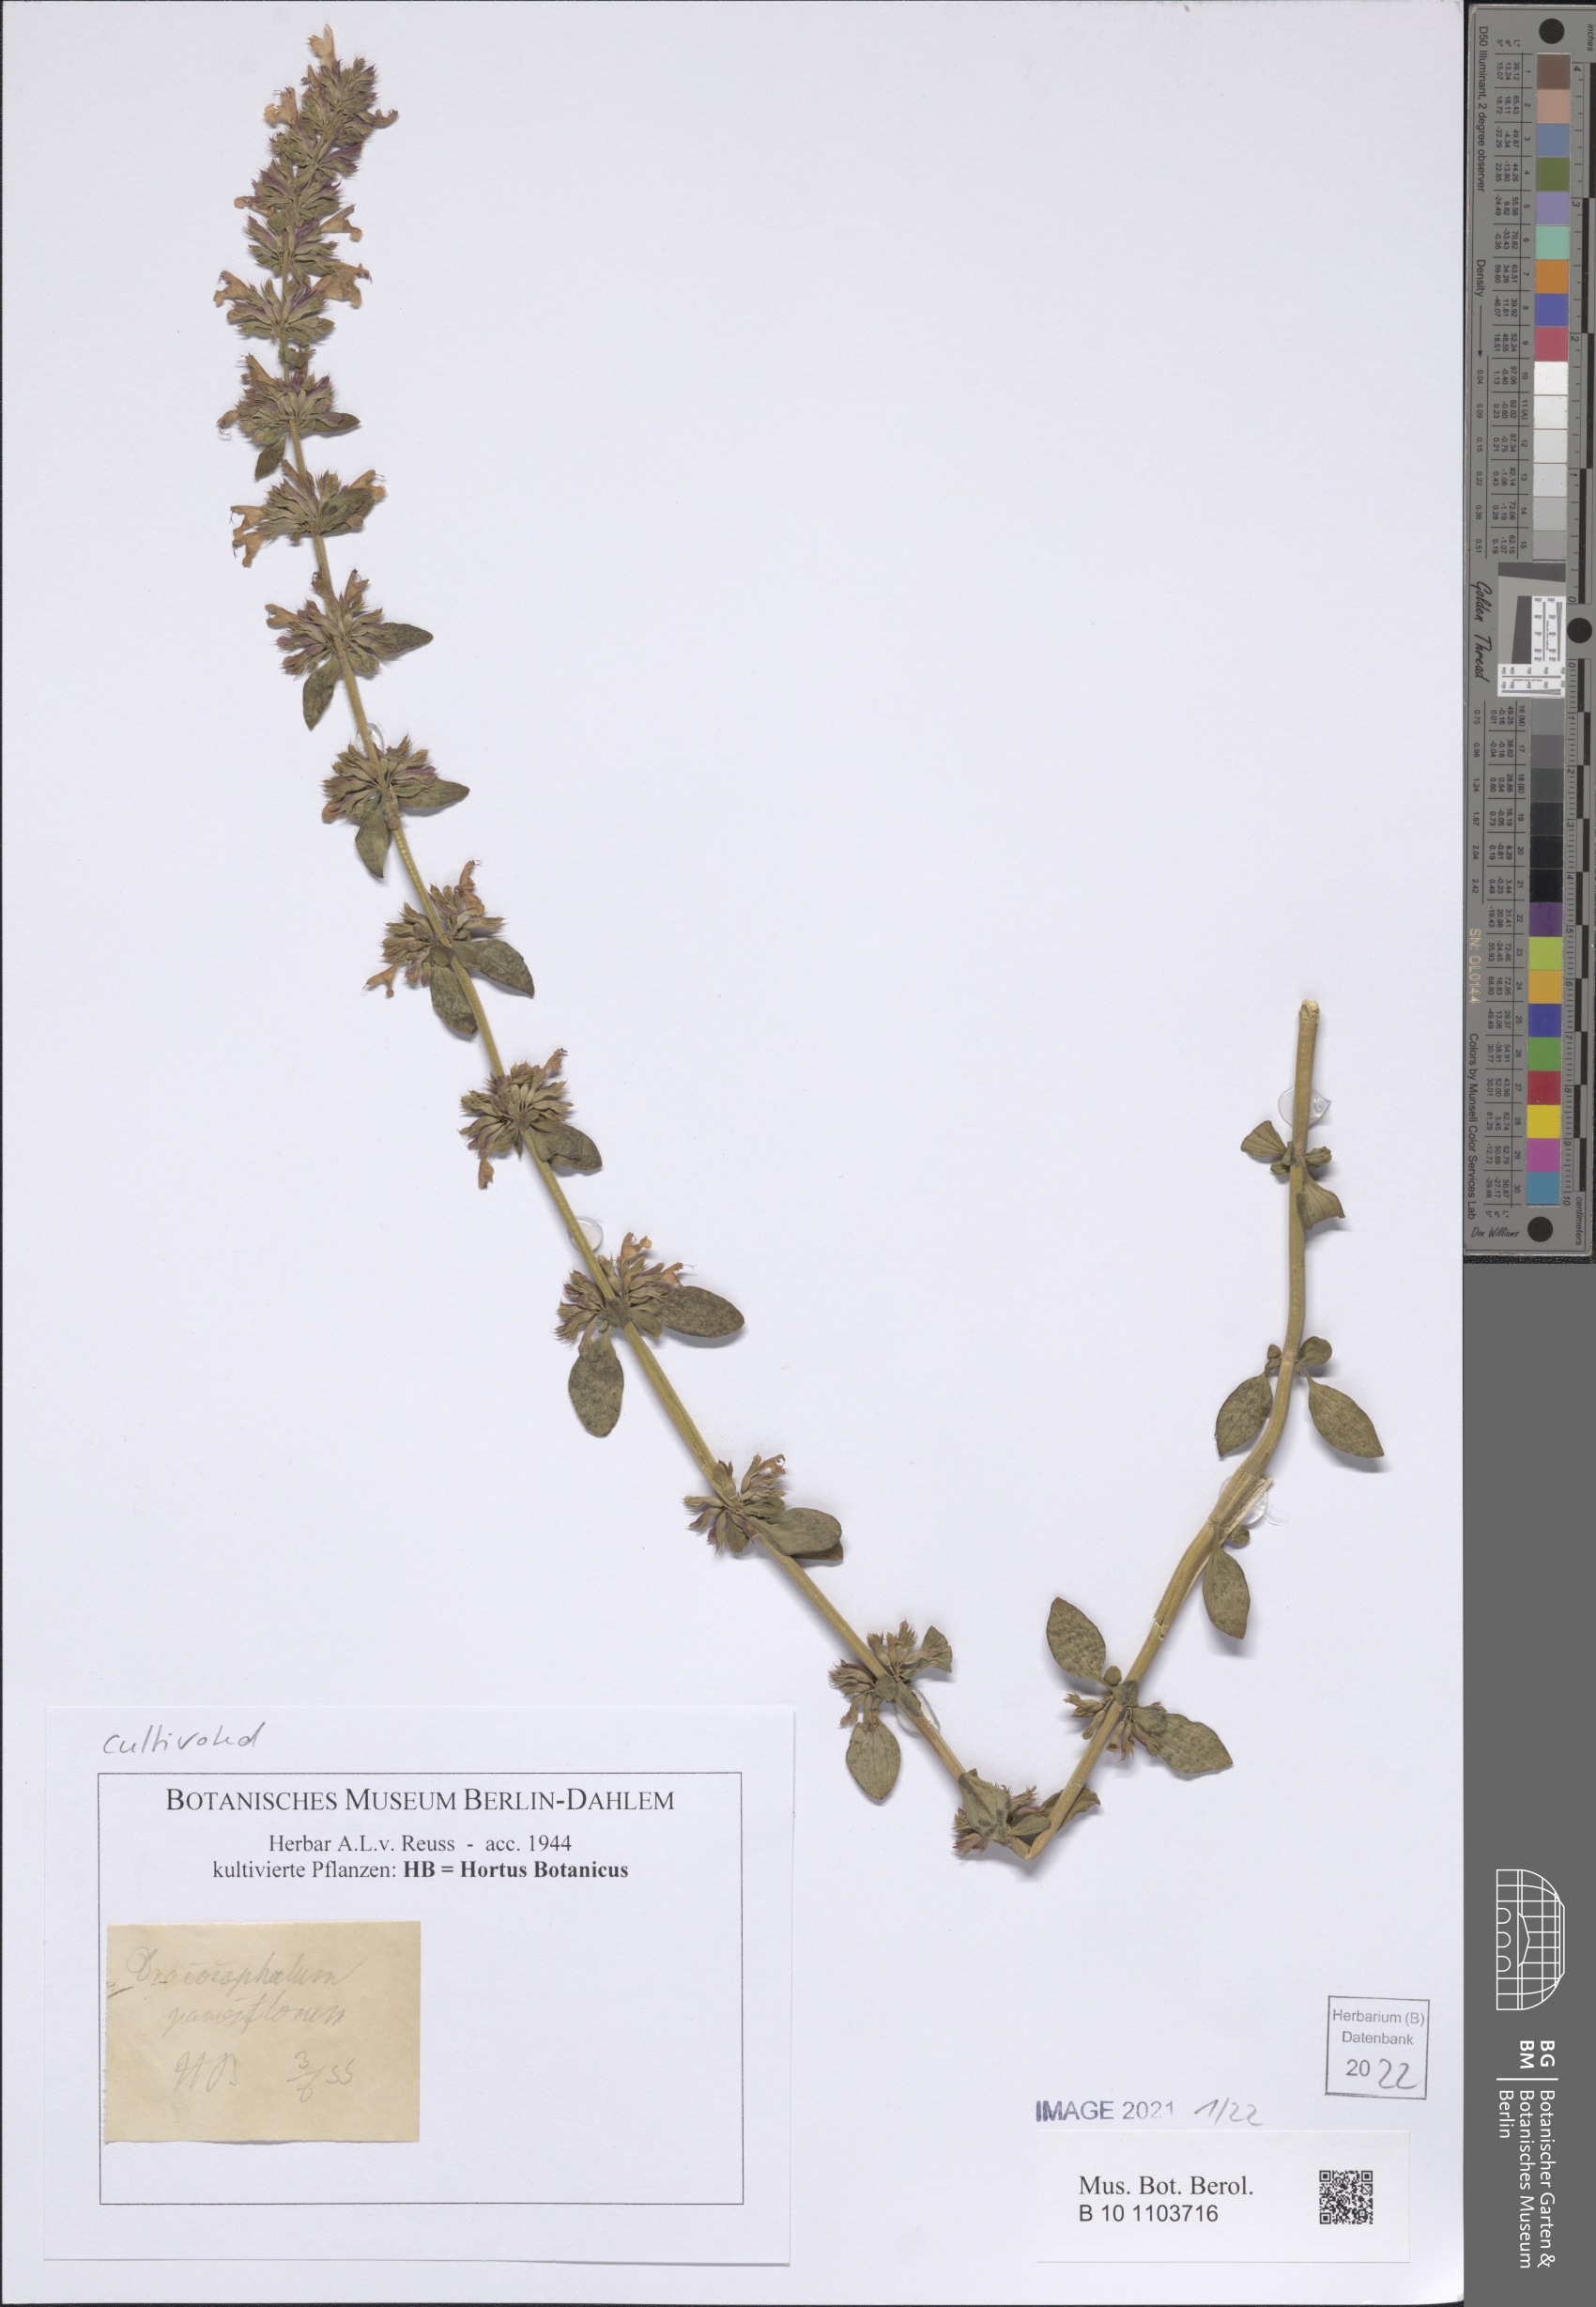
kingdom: Plantae
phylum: Tracheophyta
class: Magnoliopsida
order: Lamiales
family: Lamiaceae
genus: Dracocephalum
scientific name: Dracocephalum parviflorum
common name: American dragonhead
